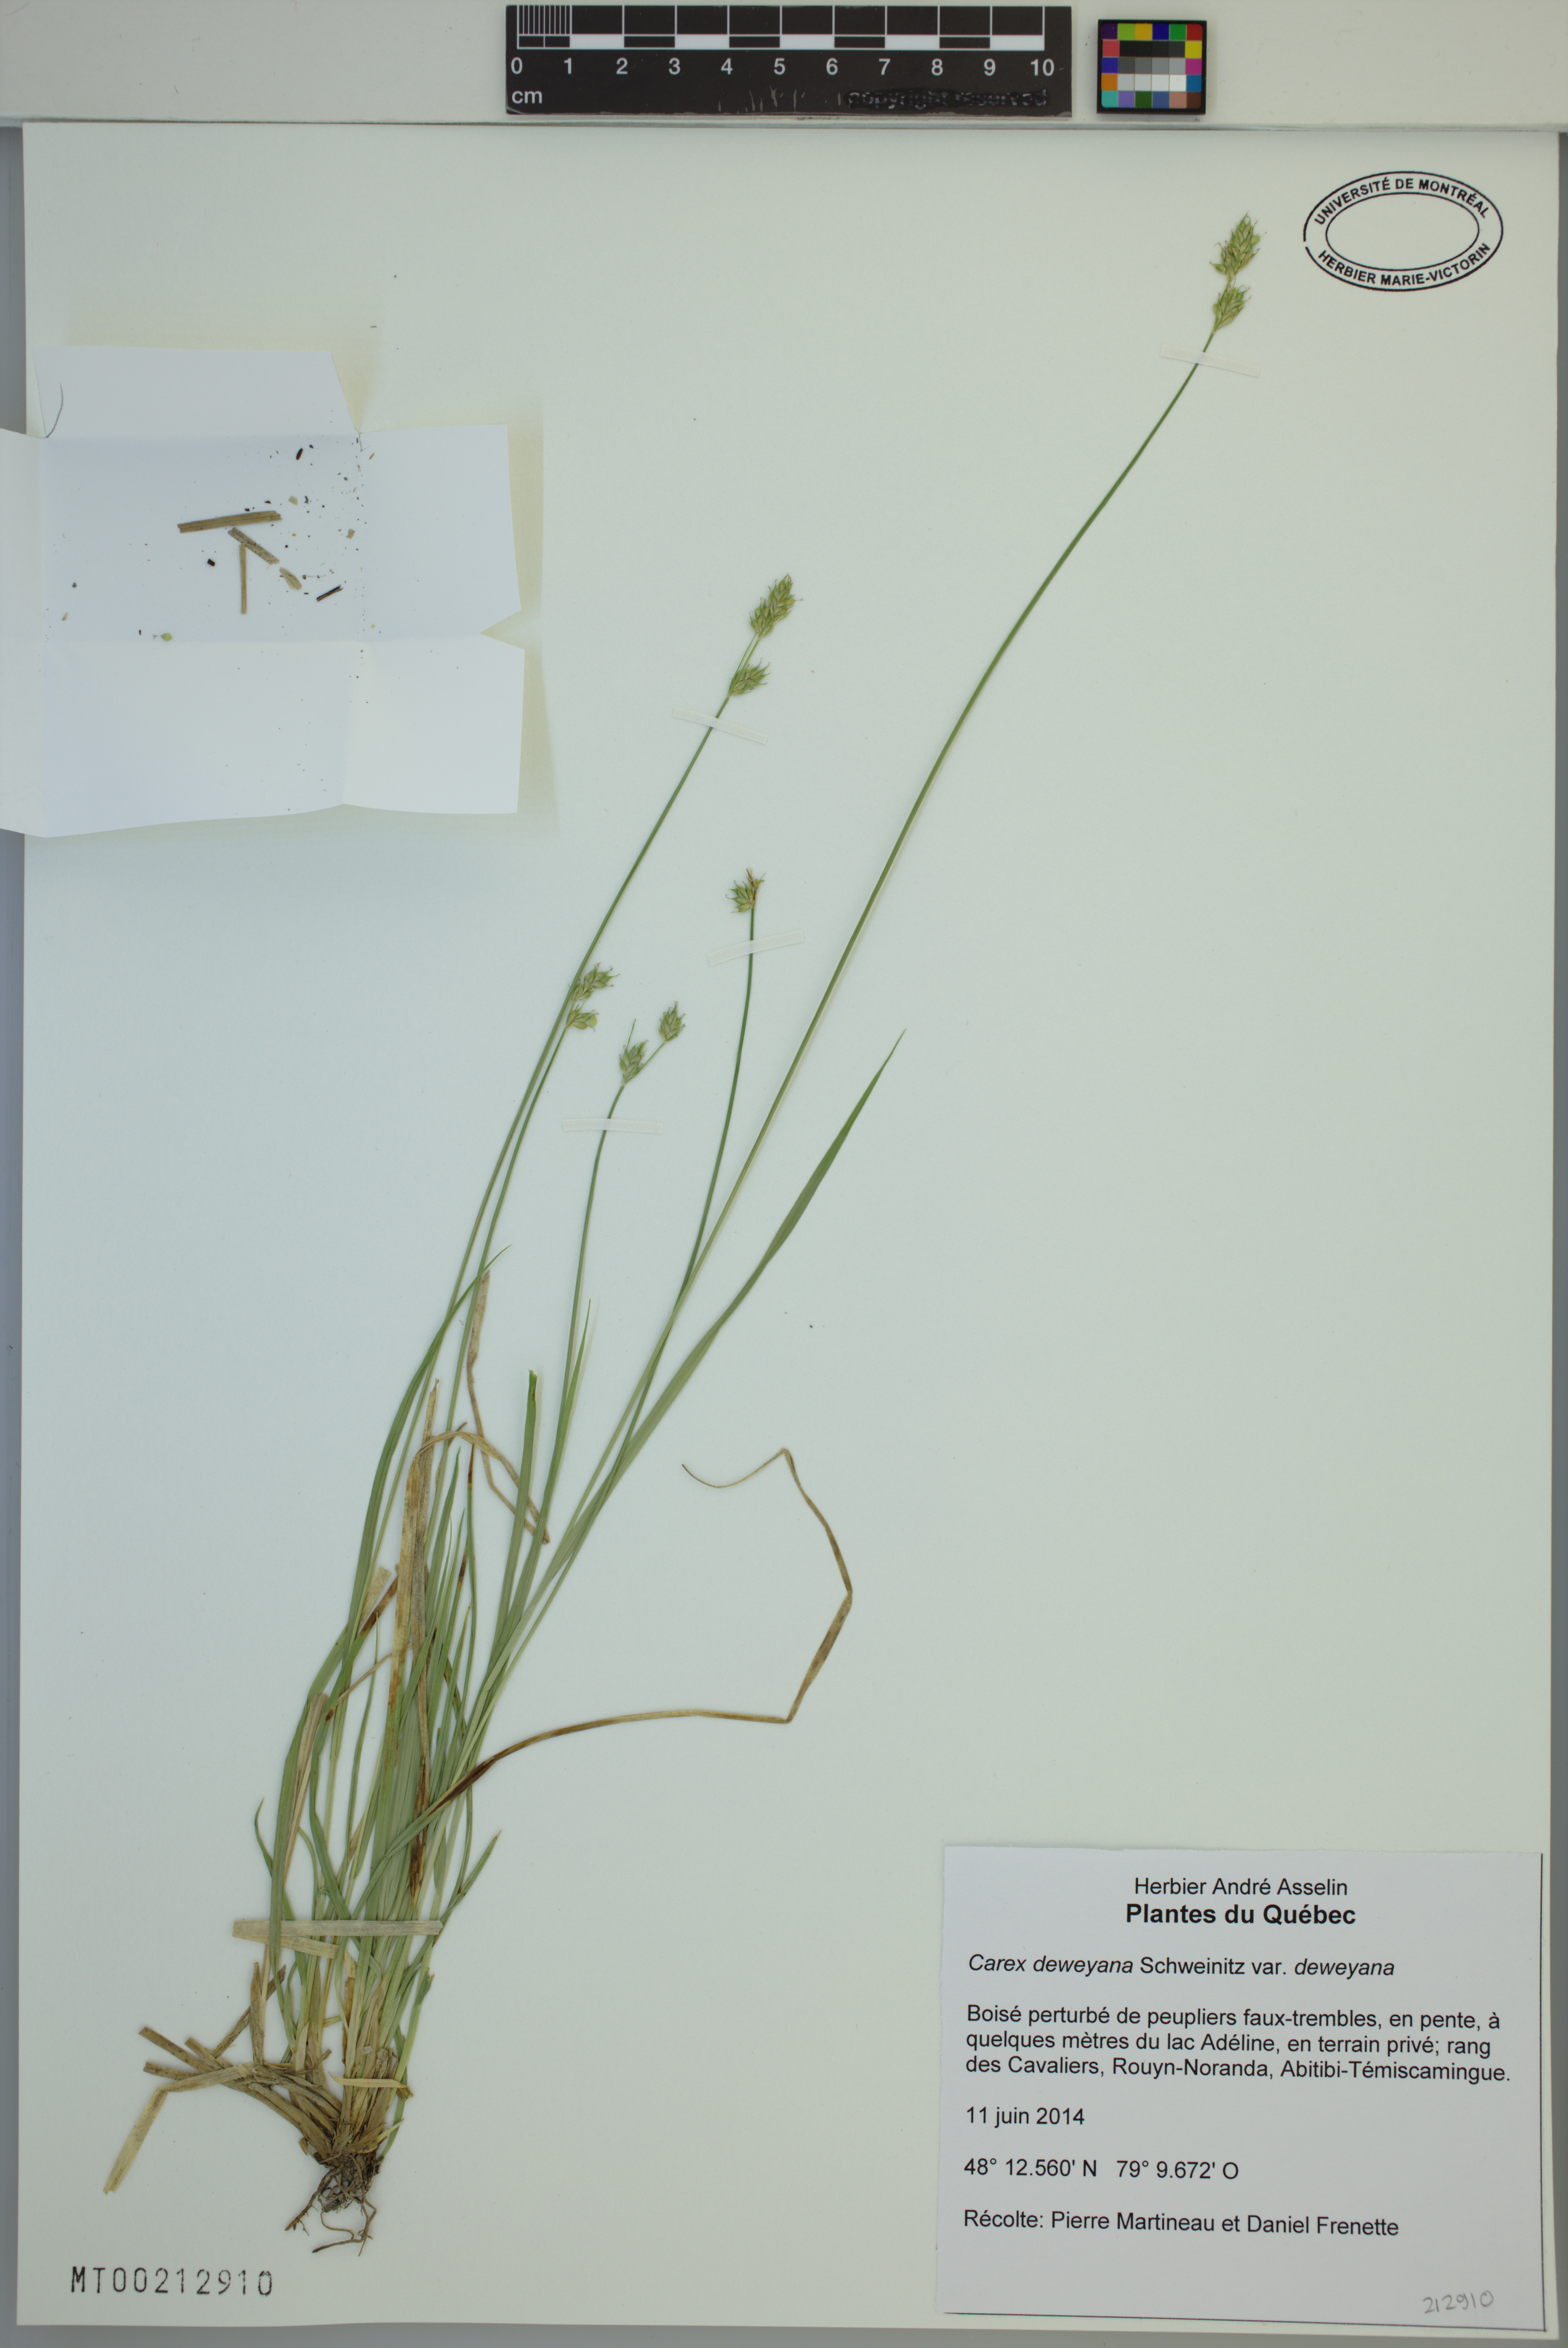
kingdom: Plantae
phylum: Tracheophyta
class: Liliopsida
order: Poales
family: Cyperaceae
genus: Carex
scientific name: Carex deweyana
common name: Dewey's sedge
